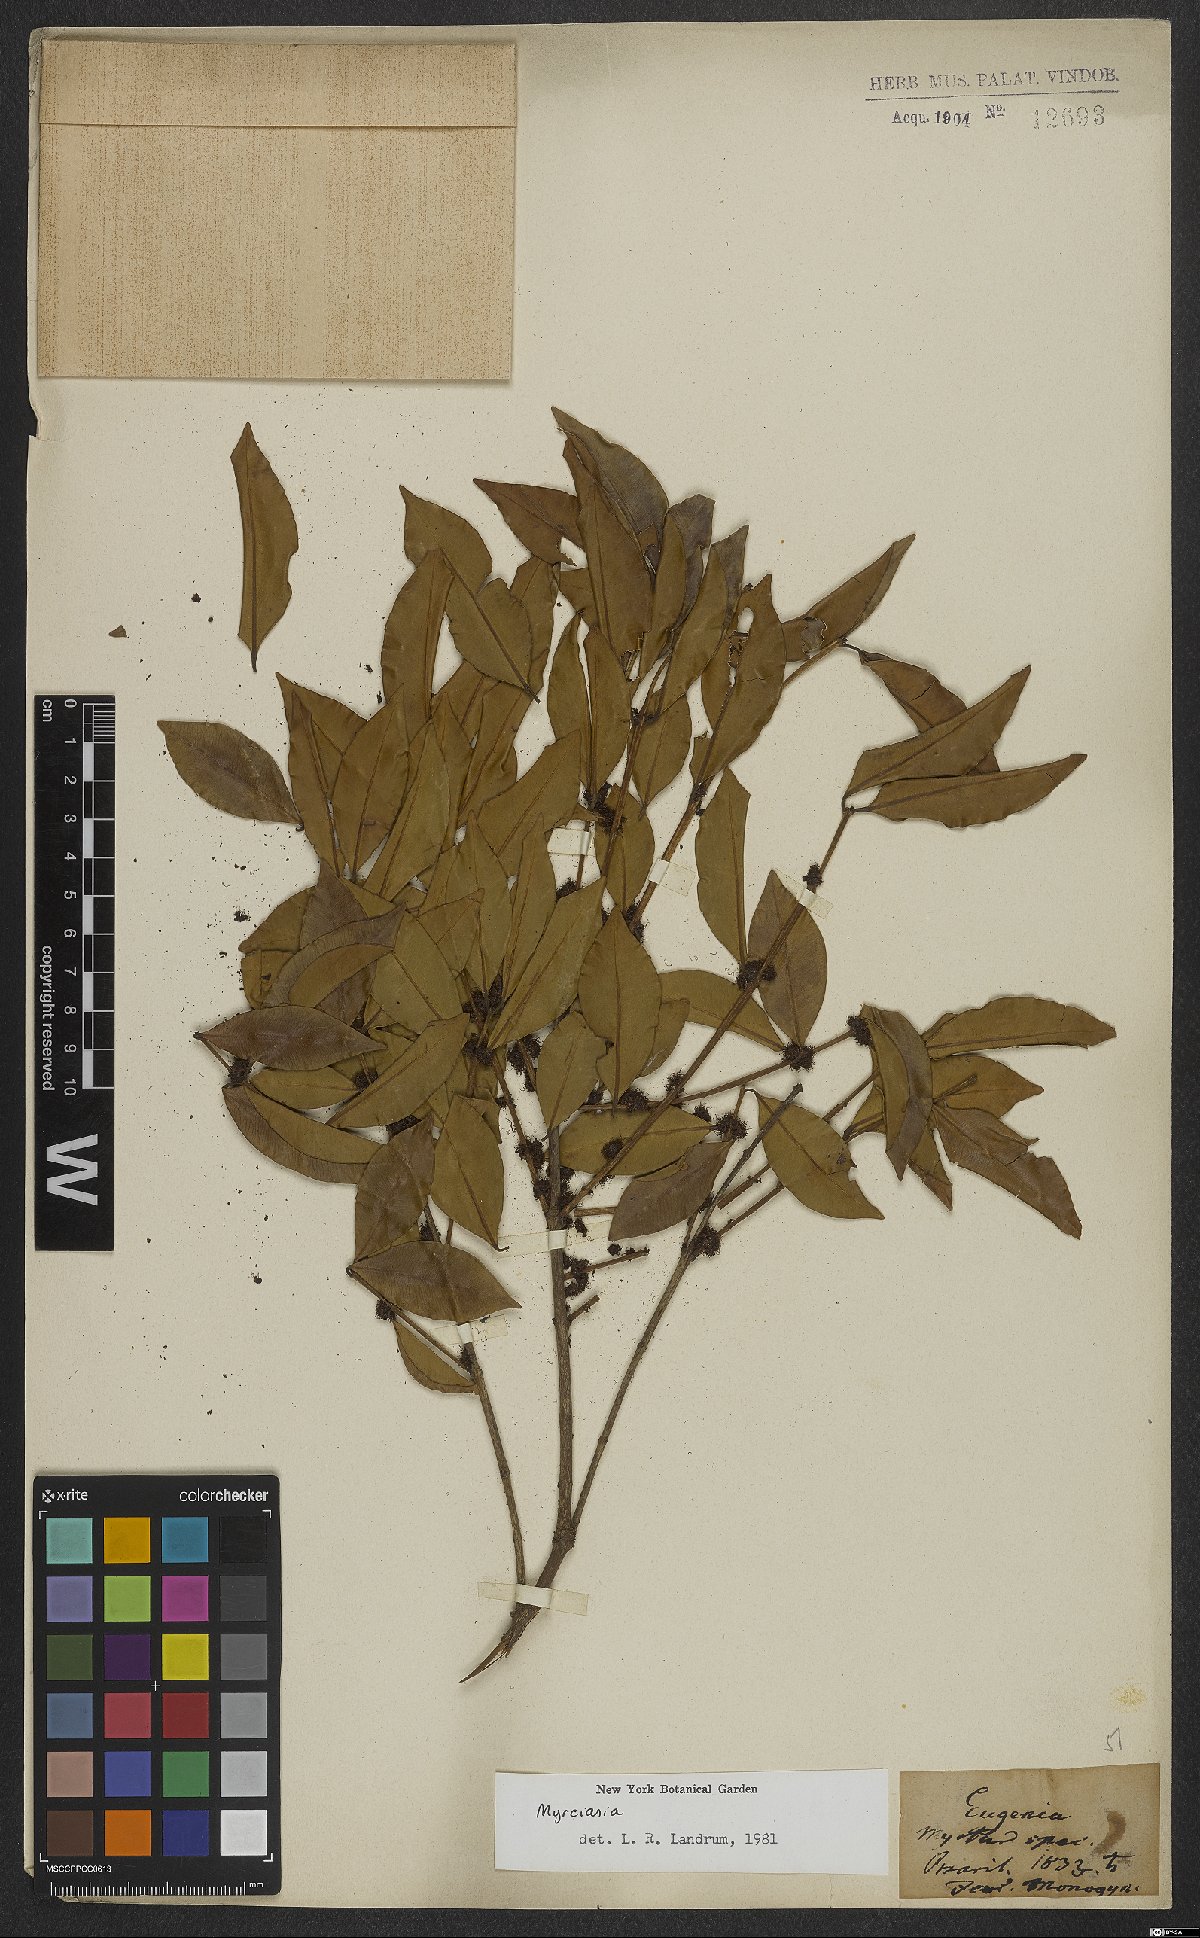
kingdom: Plantae
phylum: Tracheophyta
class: Magnoliopsida
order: Myrtales
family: Myrtaceae
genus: Myrciaria
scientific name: Myrciaria
